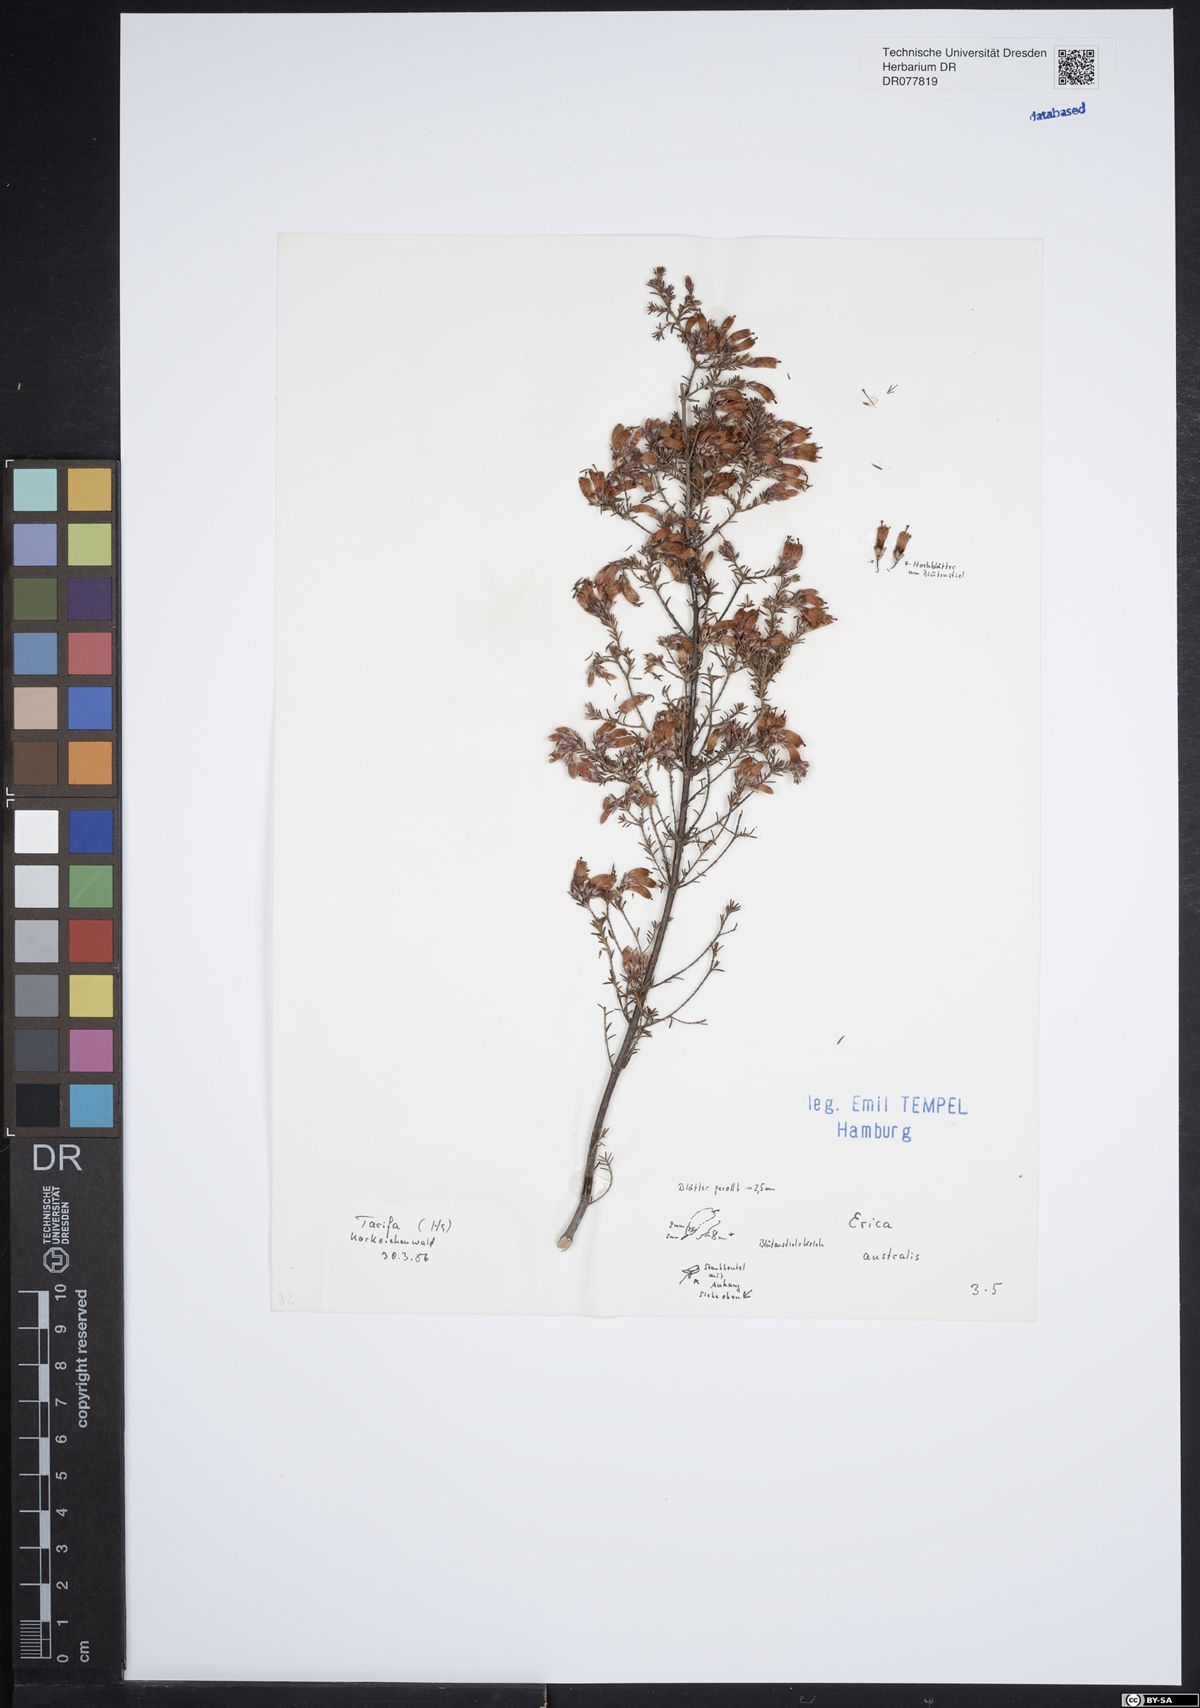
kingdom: Plantae
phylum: Tracheophyta
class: Magnoliopsida
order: Ericales
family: Ericaceae
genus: Erica
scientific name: Erica australis
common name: Spanish heath
